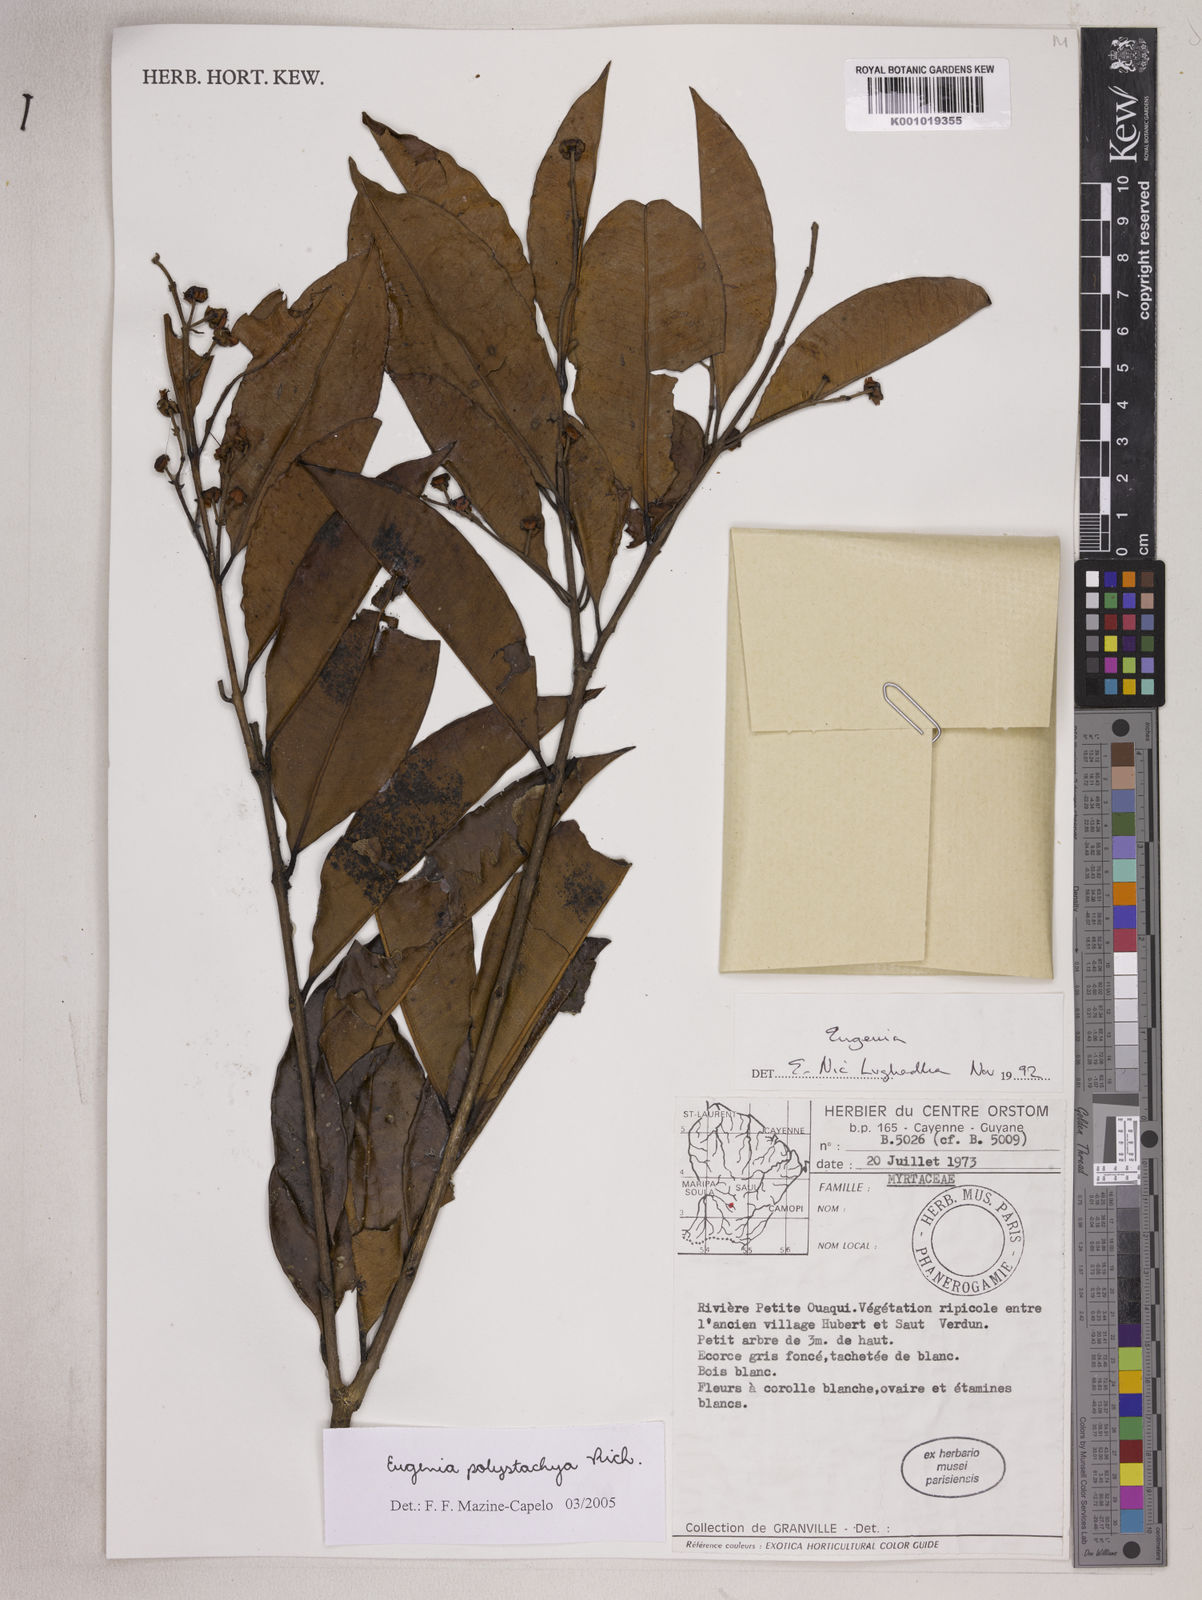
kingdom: Plantae
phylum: Tracheophyta
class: Magnoliopsida
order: Myrtales
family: Myrtaceae
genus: Eugenia
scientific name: Eugenia polystachya
